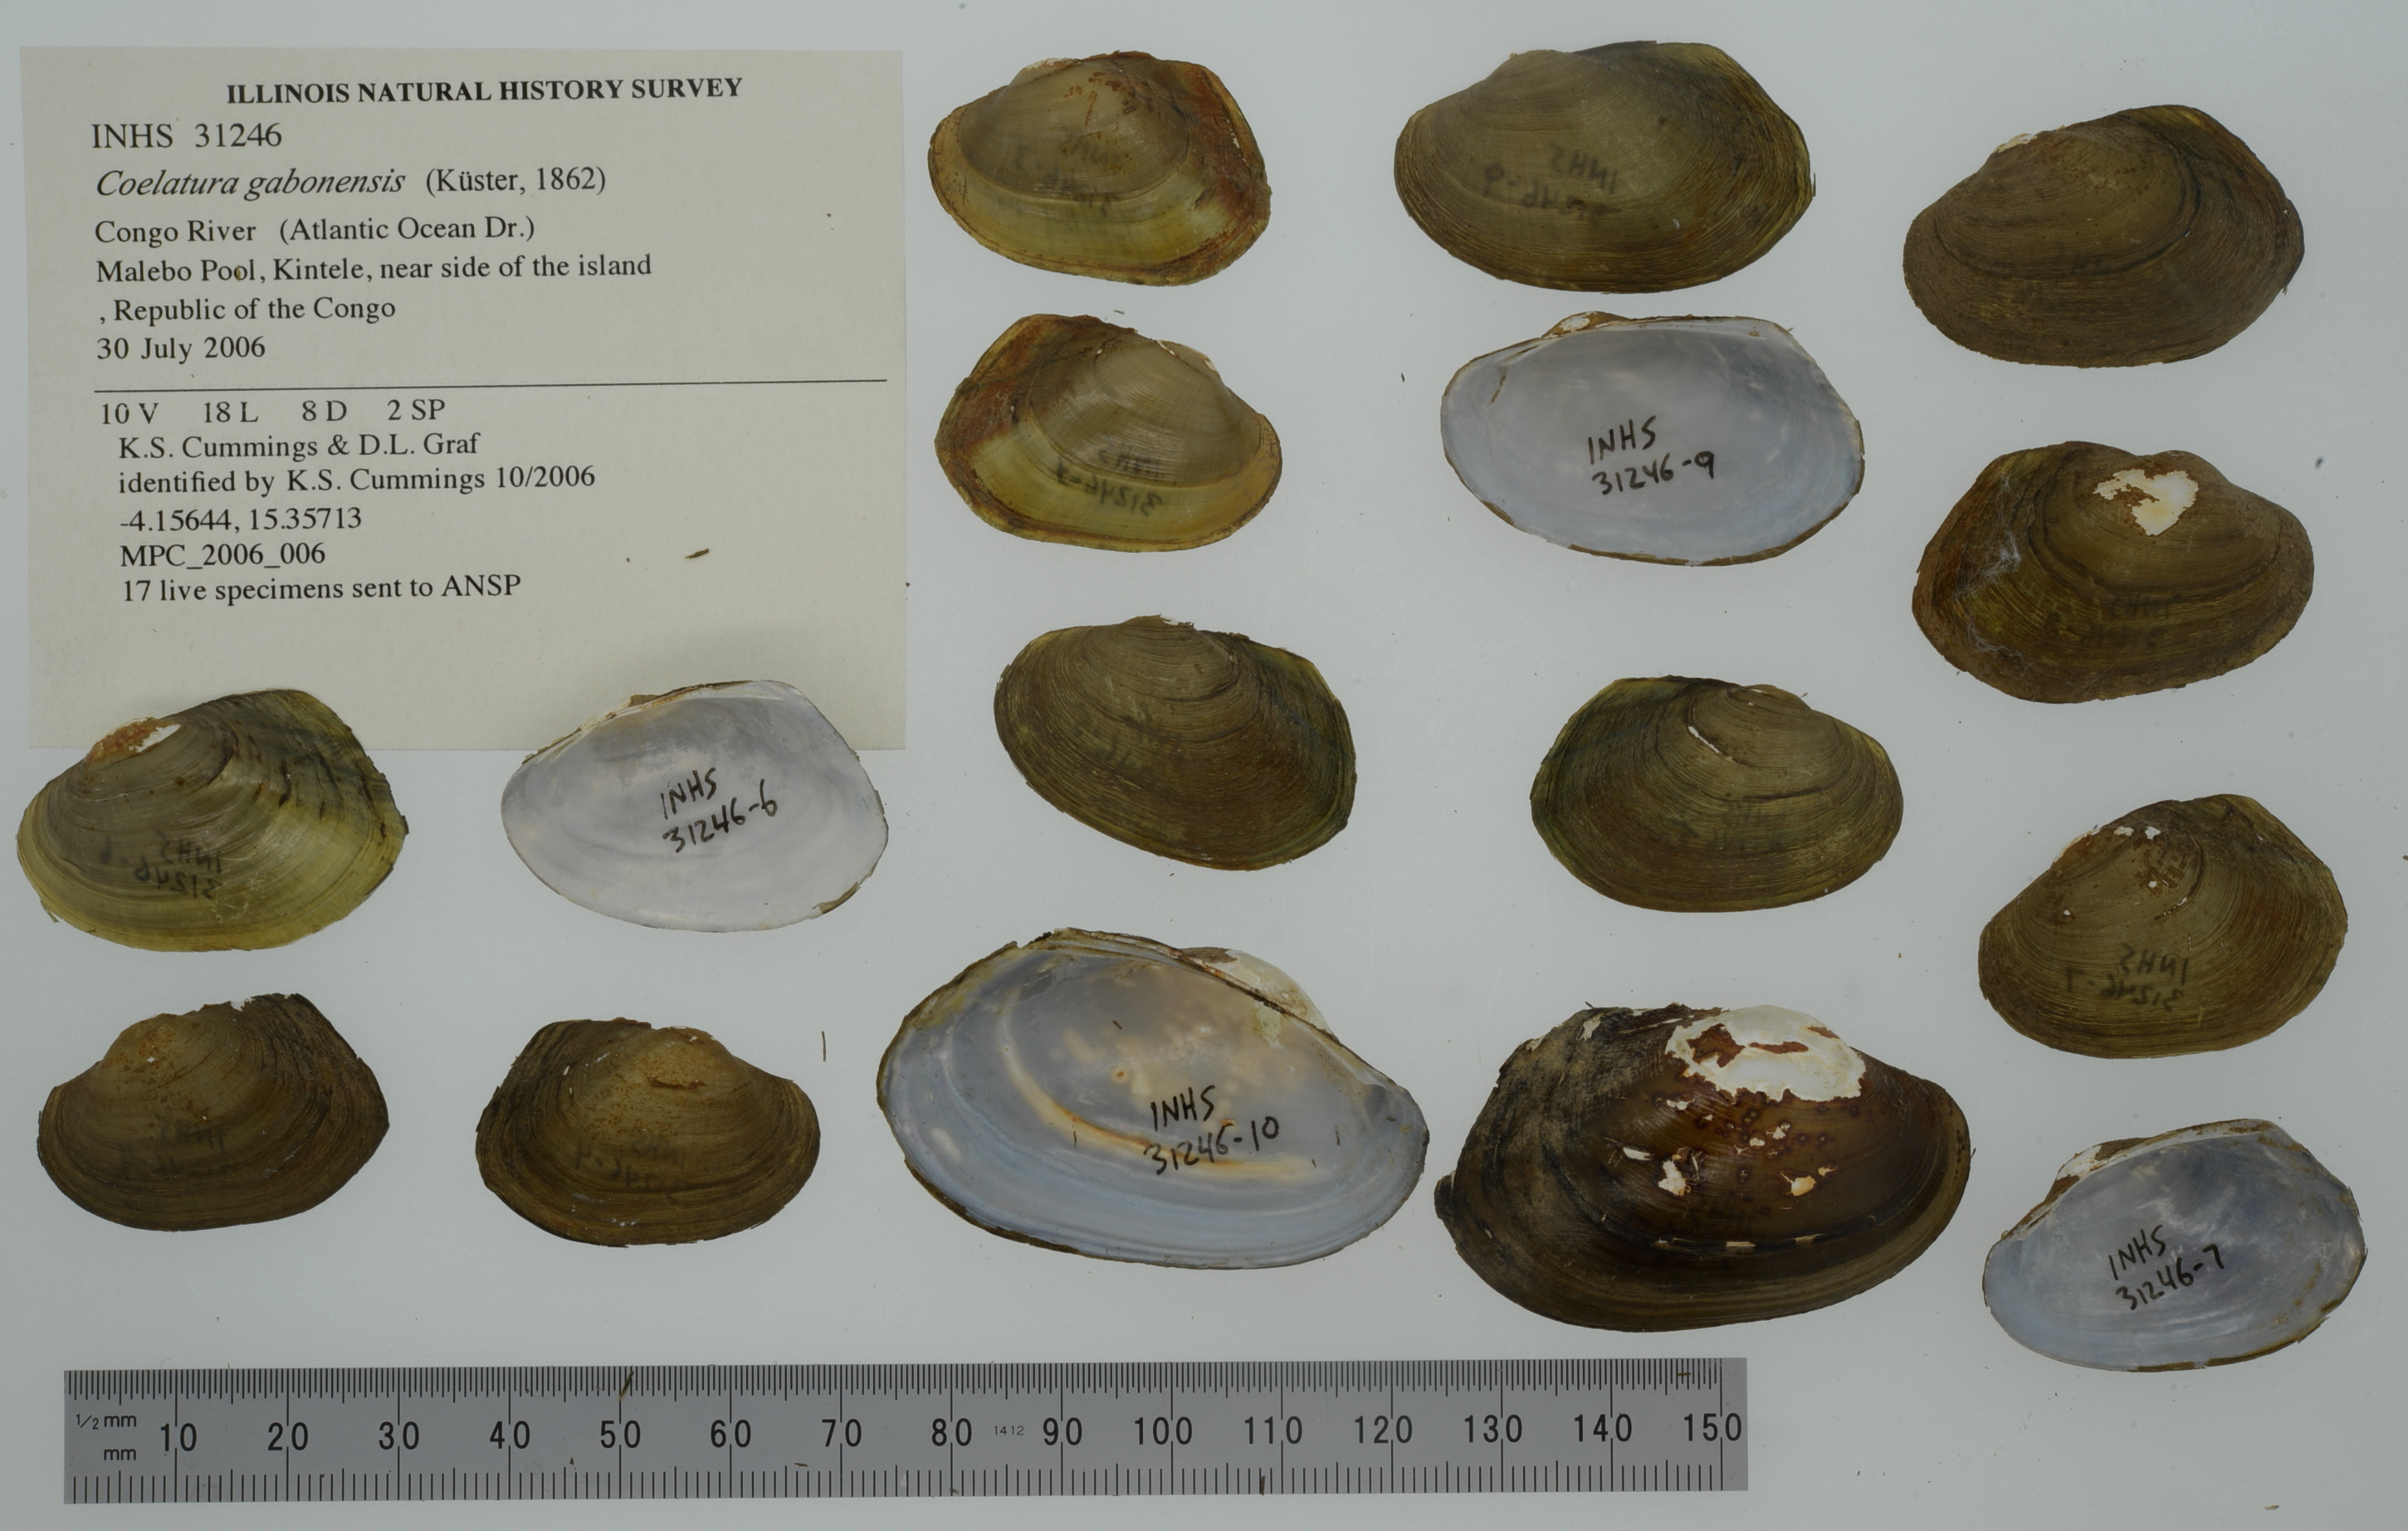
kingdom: Animalia
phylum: Mollusca
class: Bivalvia
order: Unionida
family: Unionidae
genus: Coelatura
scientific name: Coelatura gabonensis
